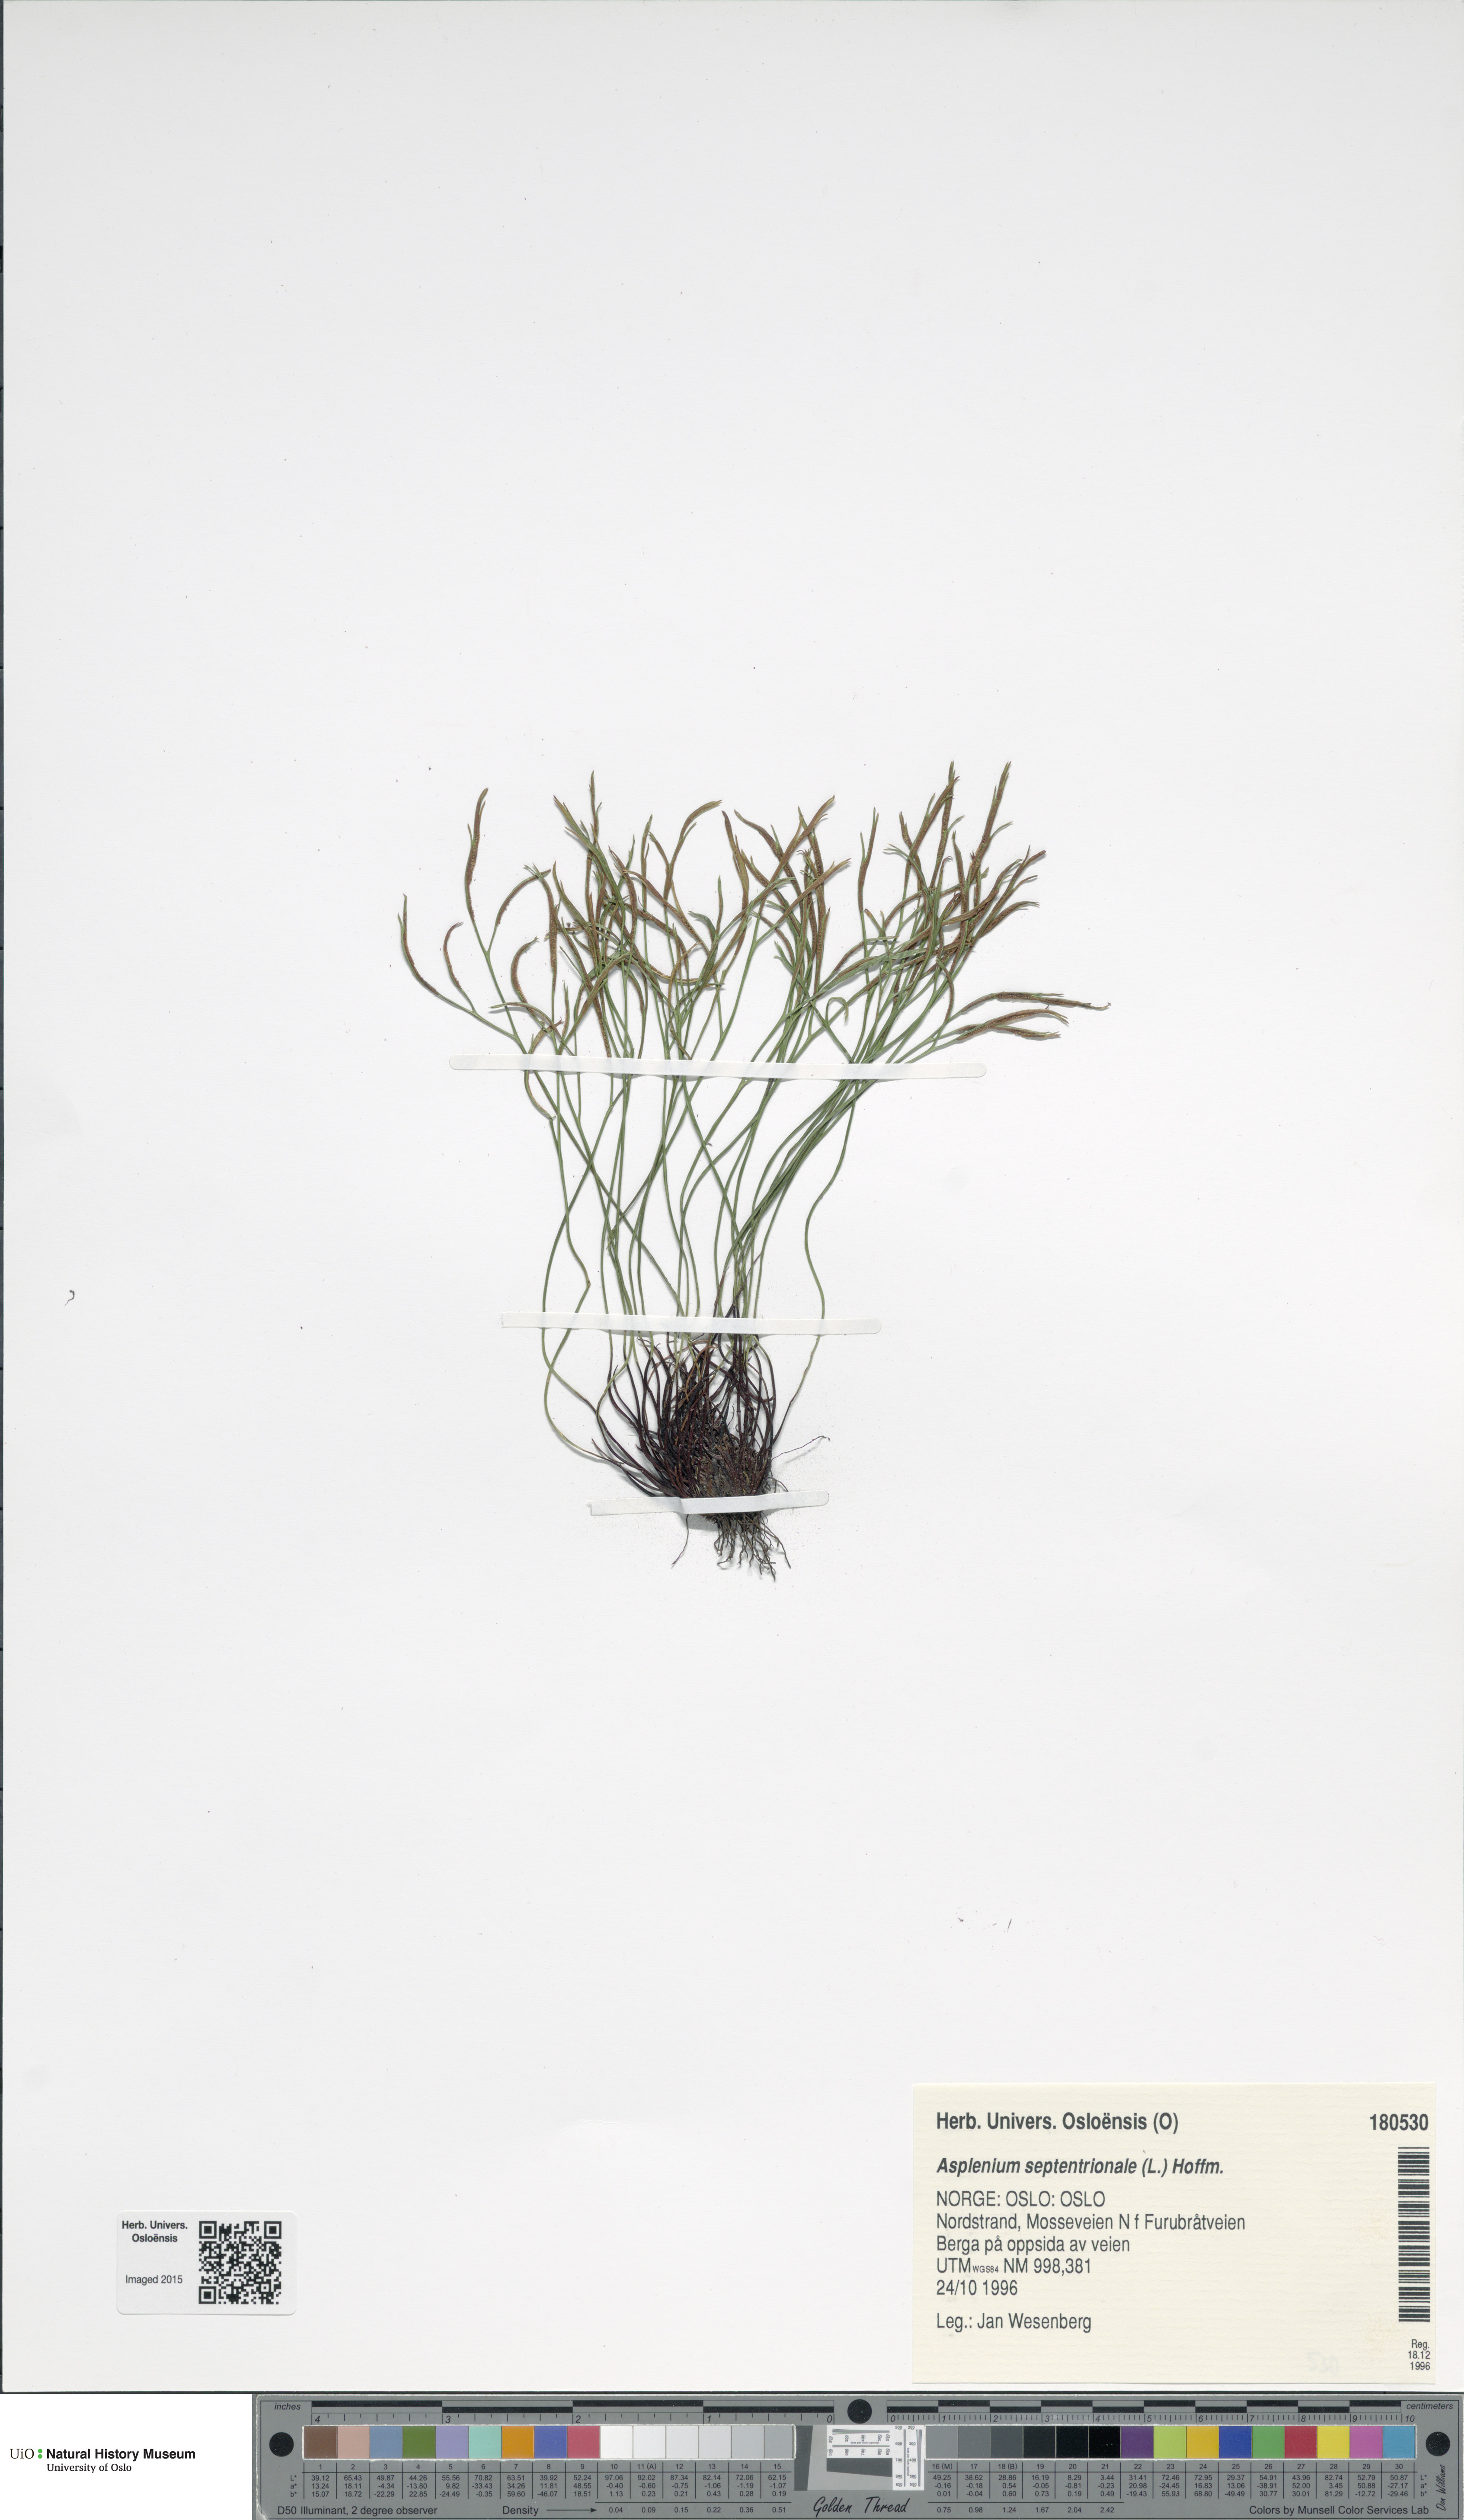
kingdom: Plantae
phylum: Tracheophyta
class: Polypodiopsida
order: Polypodiales
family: Aspleniaceae
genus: Asplenium
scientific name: Asplenium septentrionale
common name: Forked spleenwort
